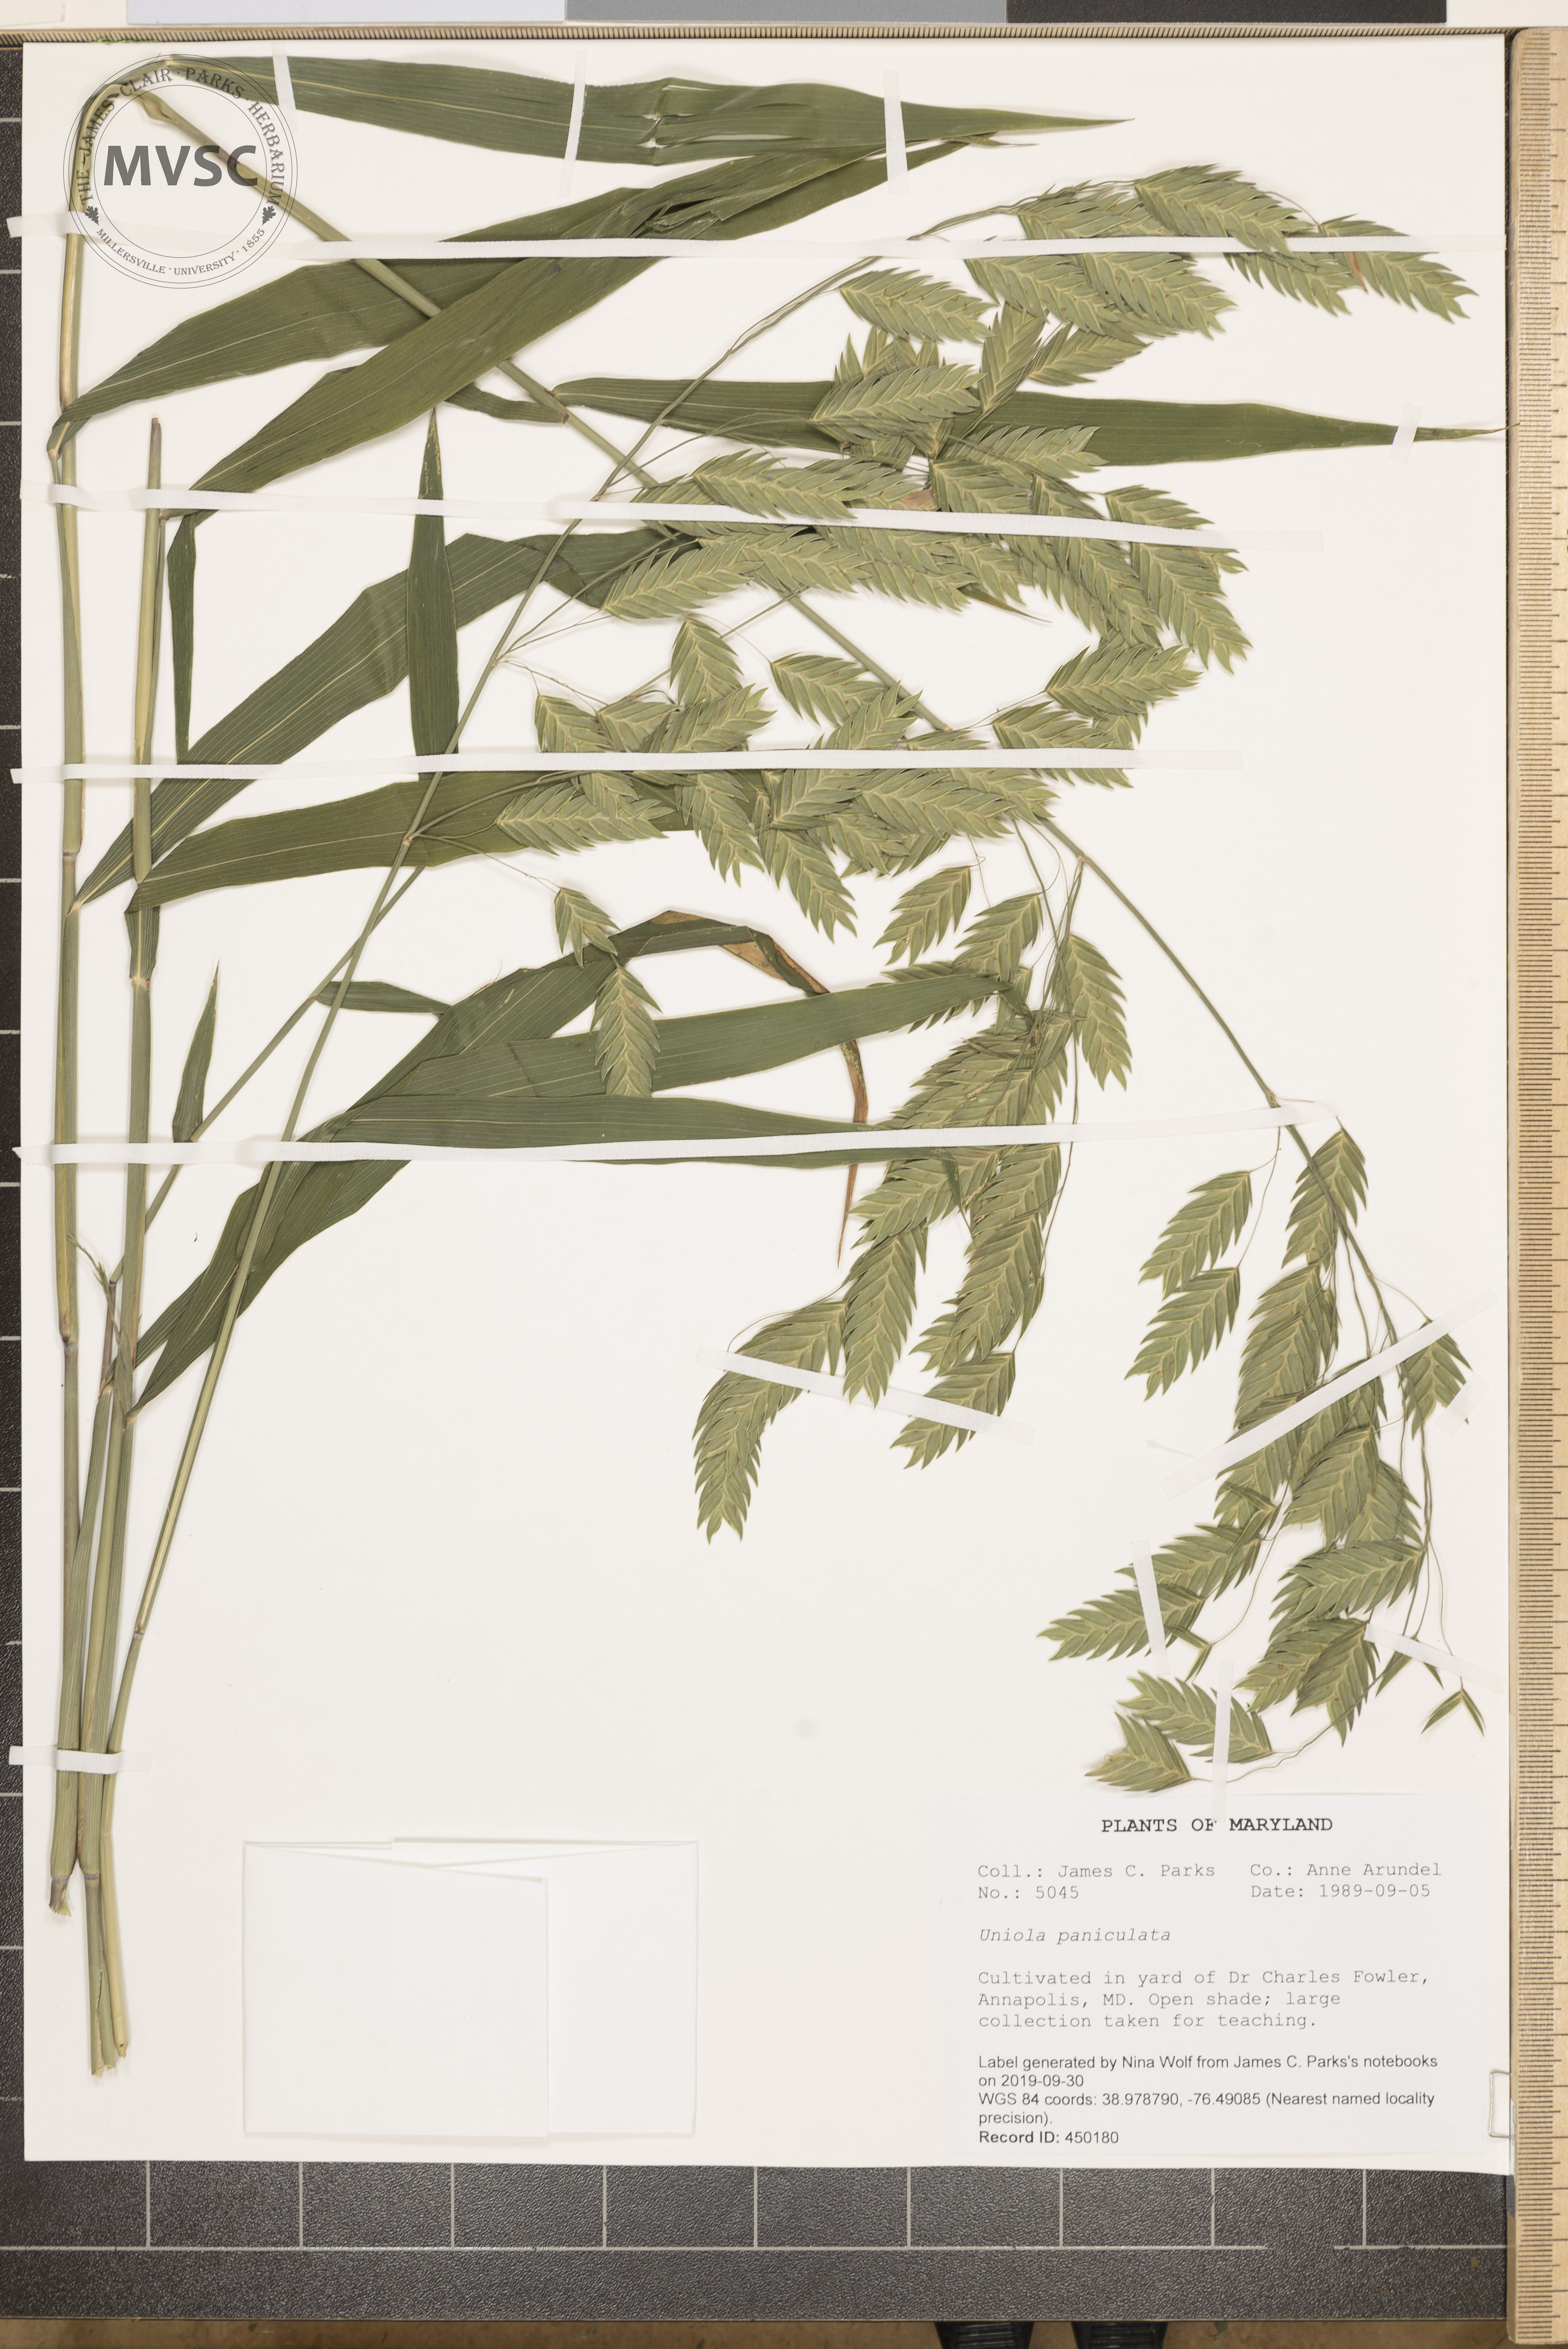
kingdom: Plantae
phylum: Tracheophyta
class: Liliopsida
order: Poales
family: Poaceae
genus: Uniola
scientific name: Uniola paniculata
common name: Seaside-oats
